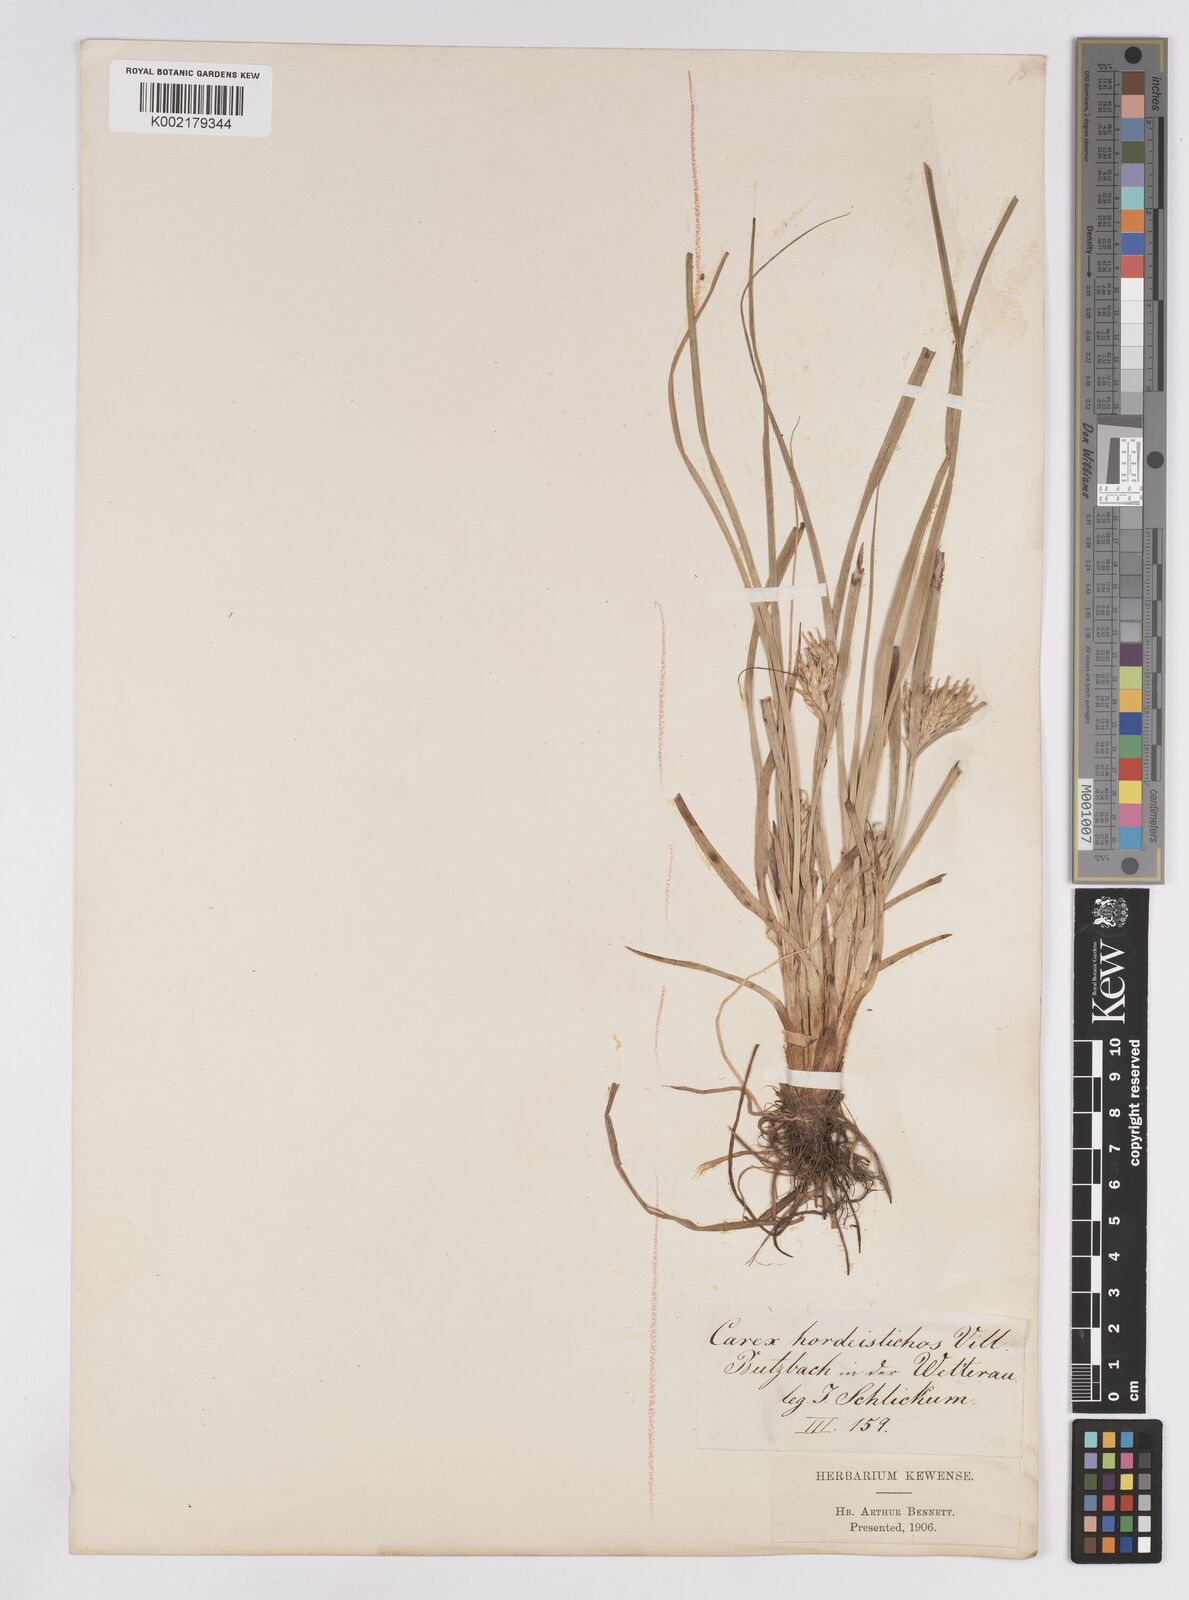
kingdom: Plantae
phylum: Tracheophyta
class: Liliopsida
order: Poales
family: Cyperaceae
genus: Carex
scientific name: Carex hordeistichos
